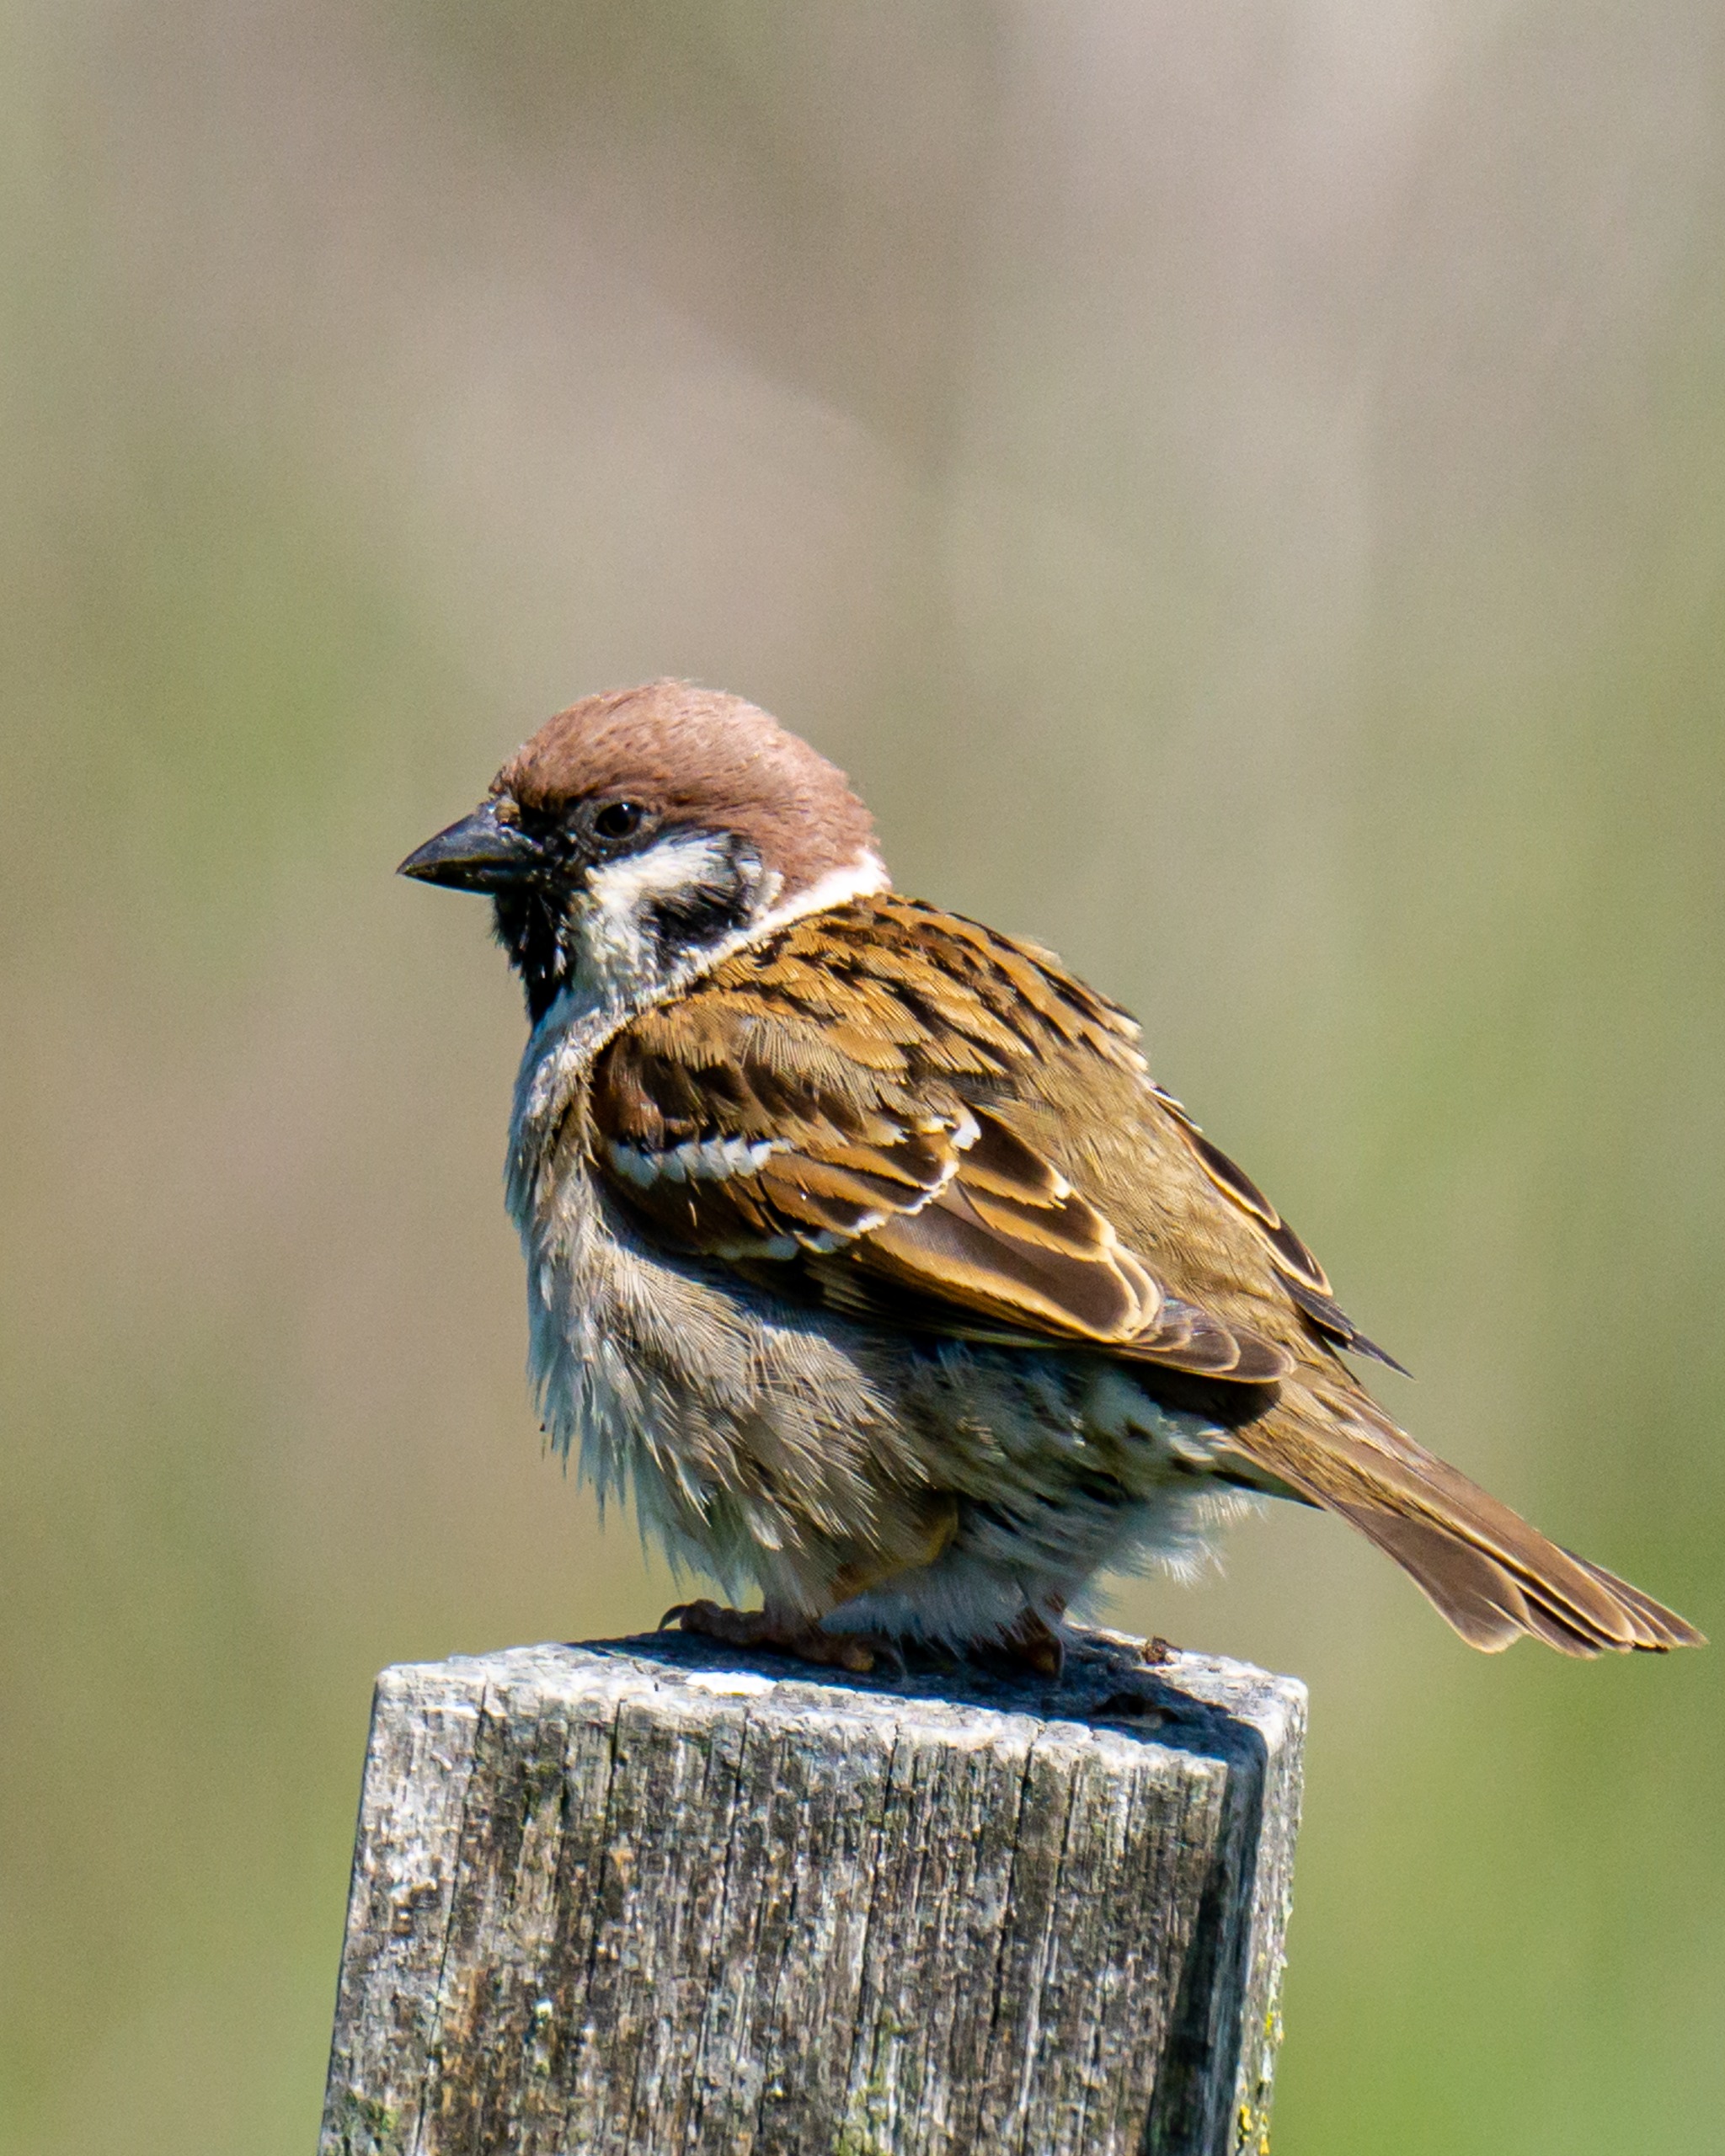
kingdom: Animalia
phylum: Chordata
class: Aves
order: Passeriformes
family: Passeridae
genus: Passer
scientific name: Passer montanus
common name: Skovspurv
